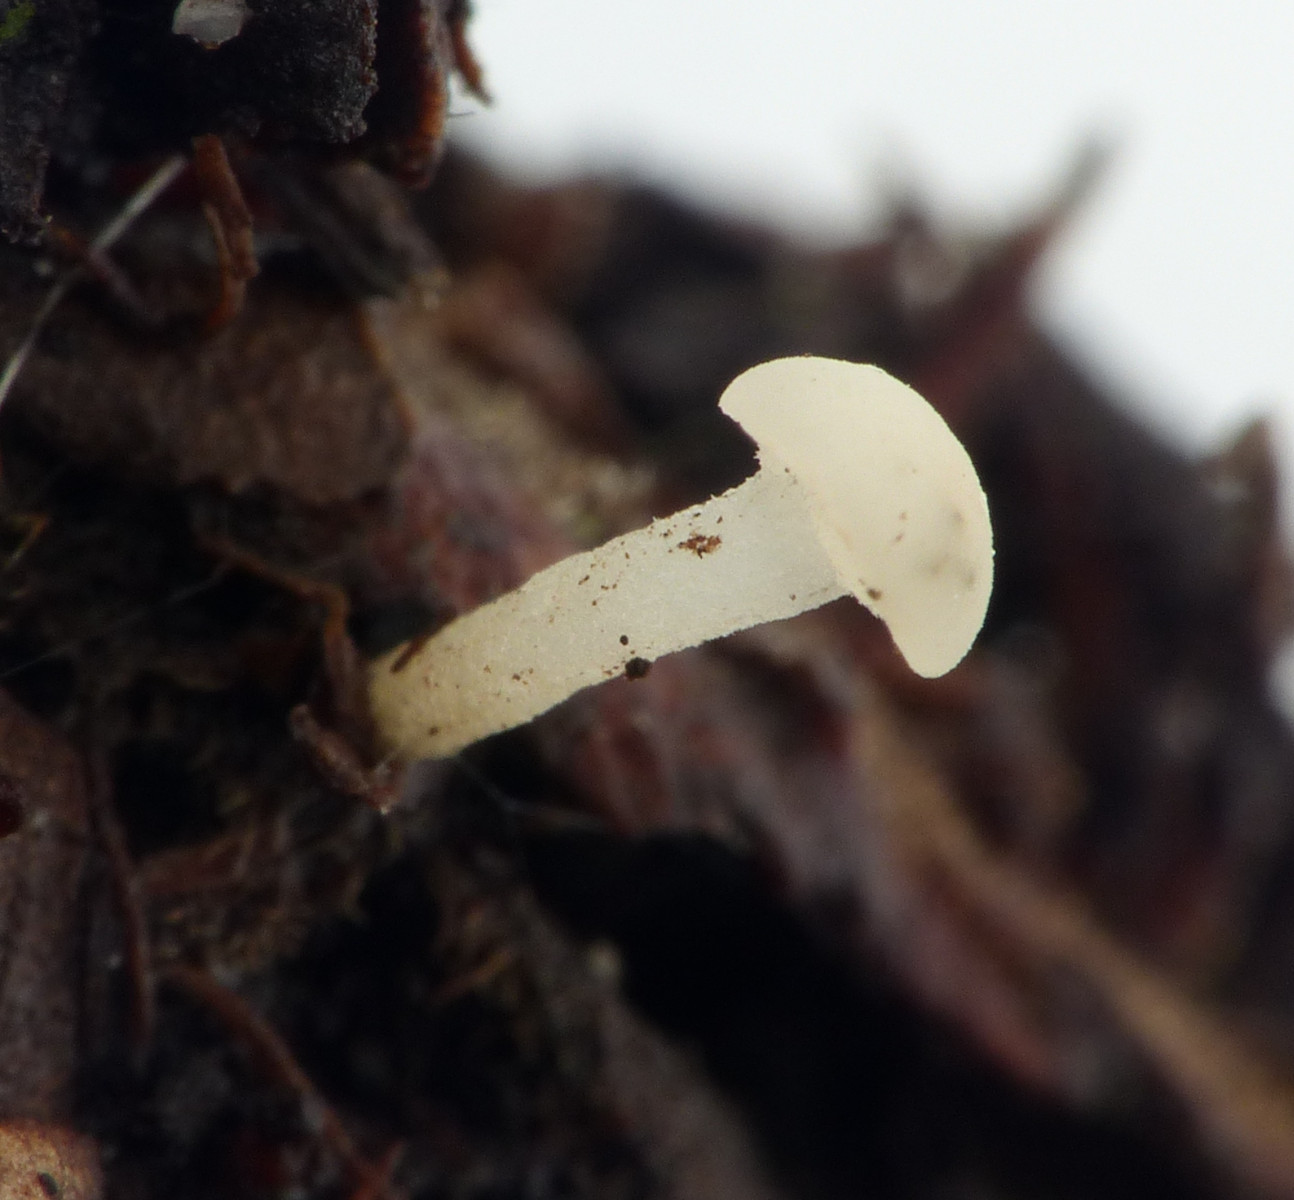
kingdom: Fungi
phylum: Ascomycota
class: Leotiomycetes
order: Helotiales
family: Tricladiaceae
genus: Cudoniella
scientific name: Cudoniella acicularis
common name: ege-dyndskive
